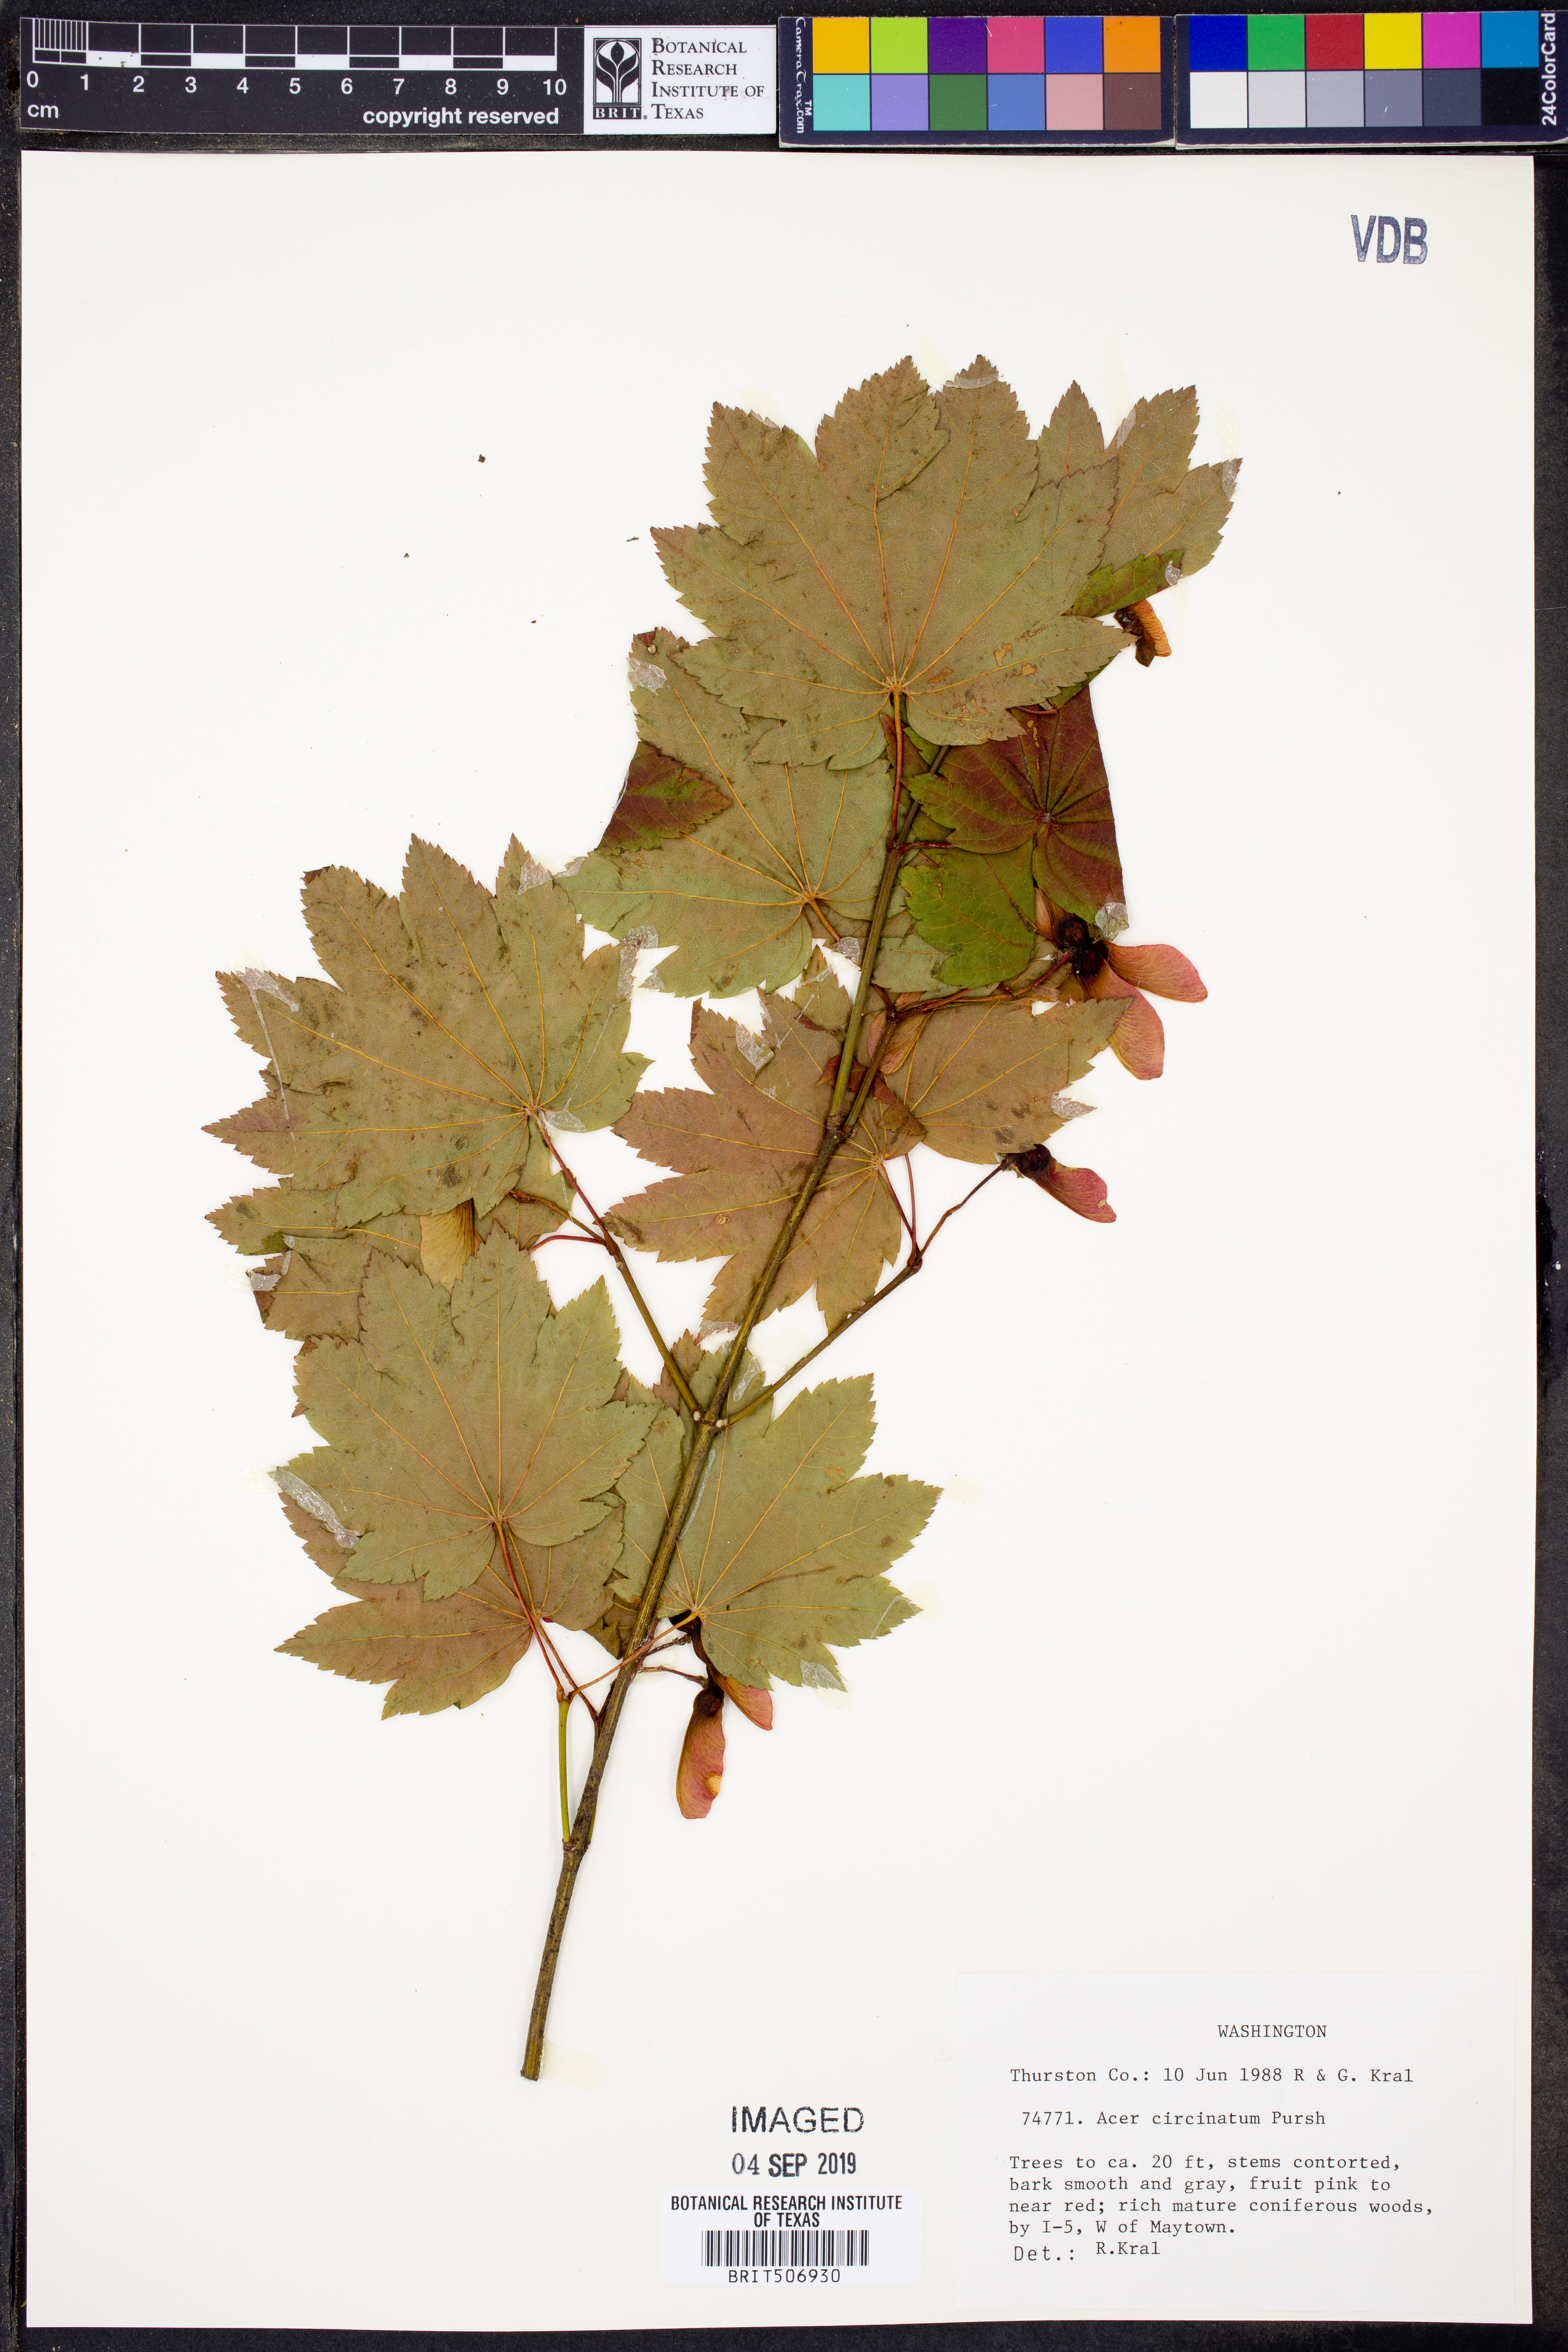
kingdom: Plantae
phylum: Tracheophyta
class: Magnoliopsida
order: Sapindales
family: Sapindaceae
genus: Acer
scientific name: Acer circinatum
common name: Vine maple
